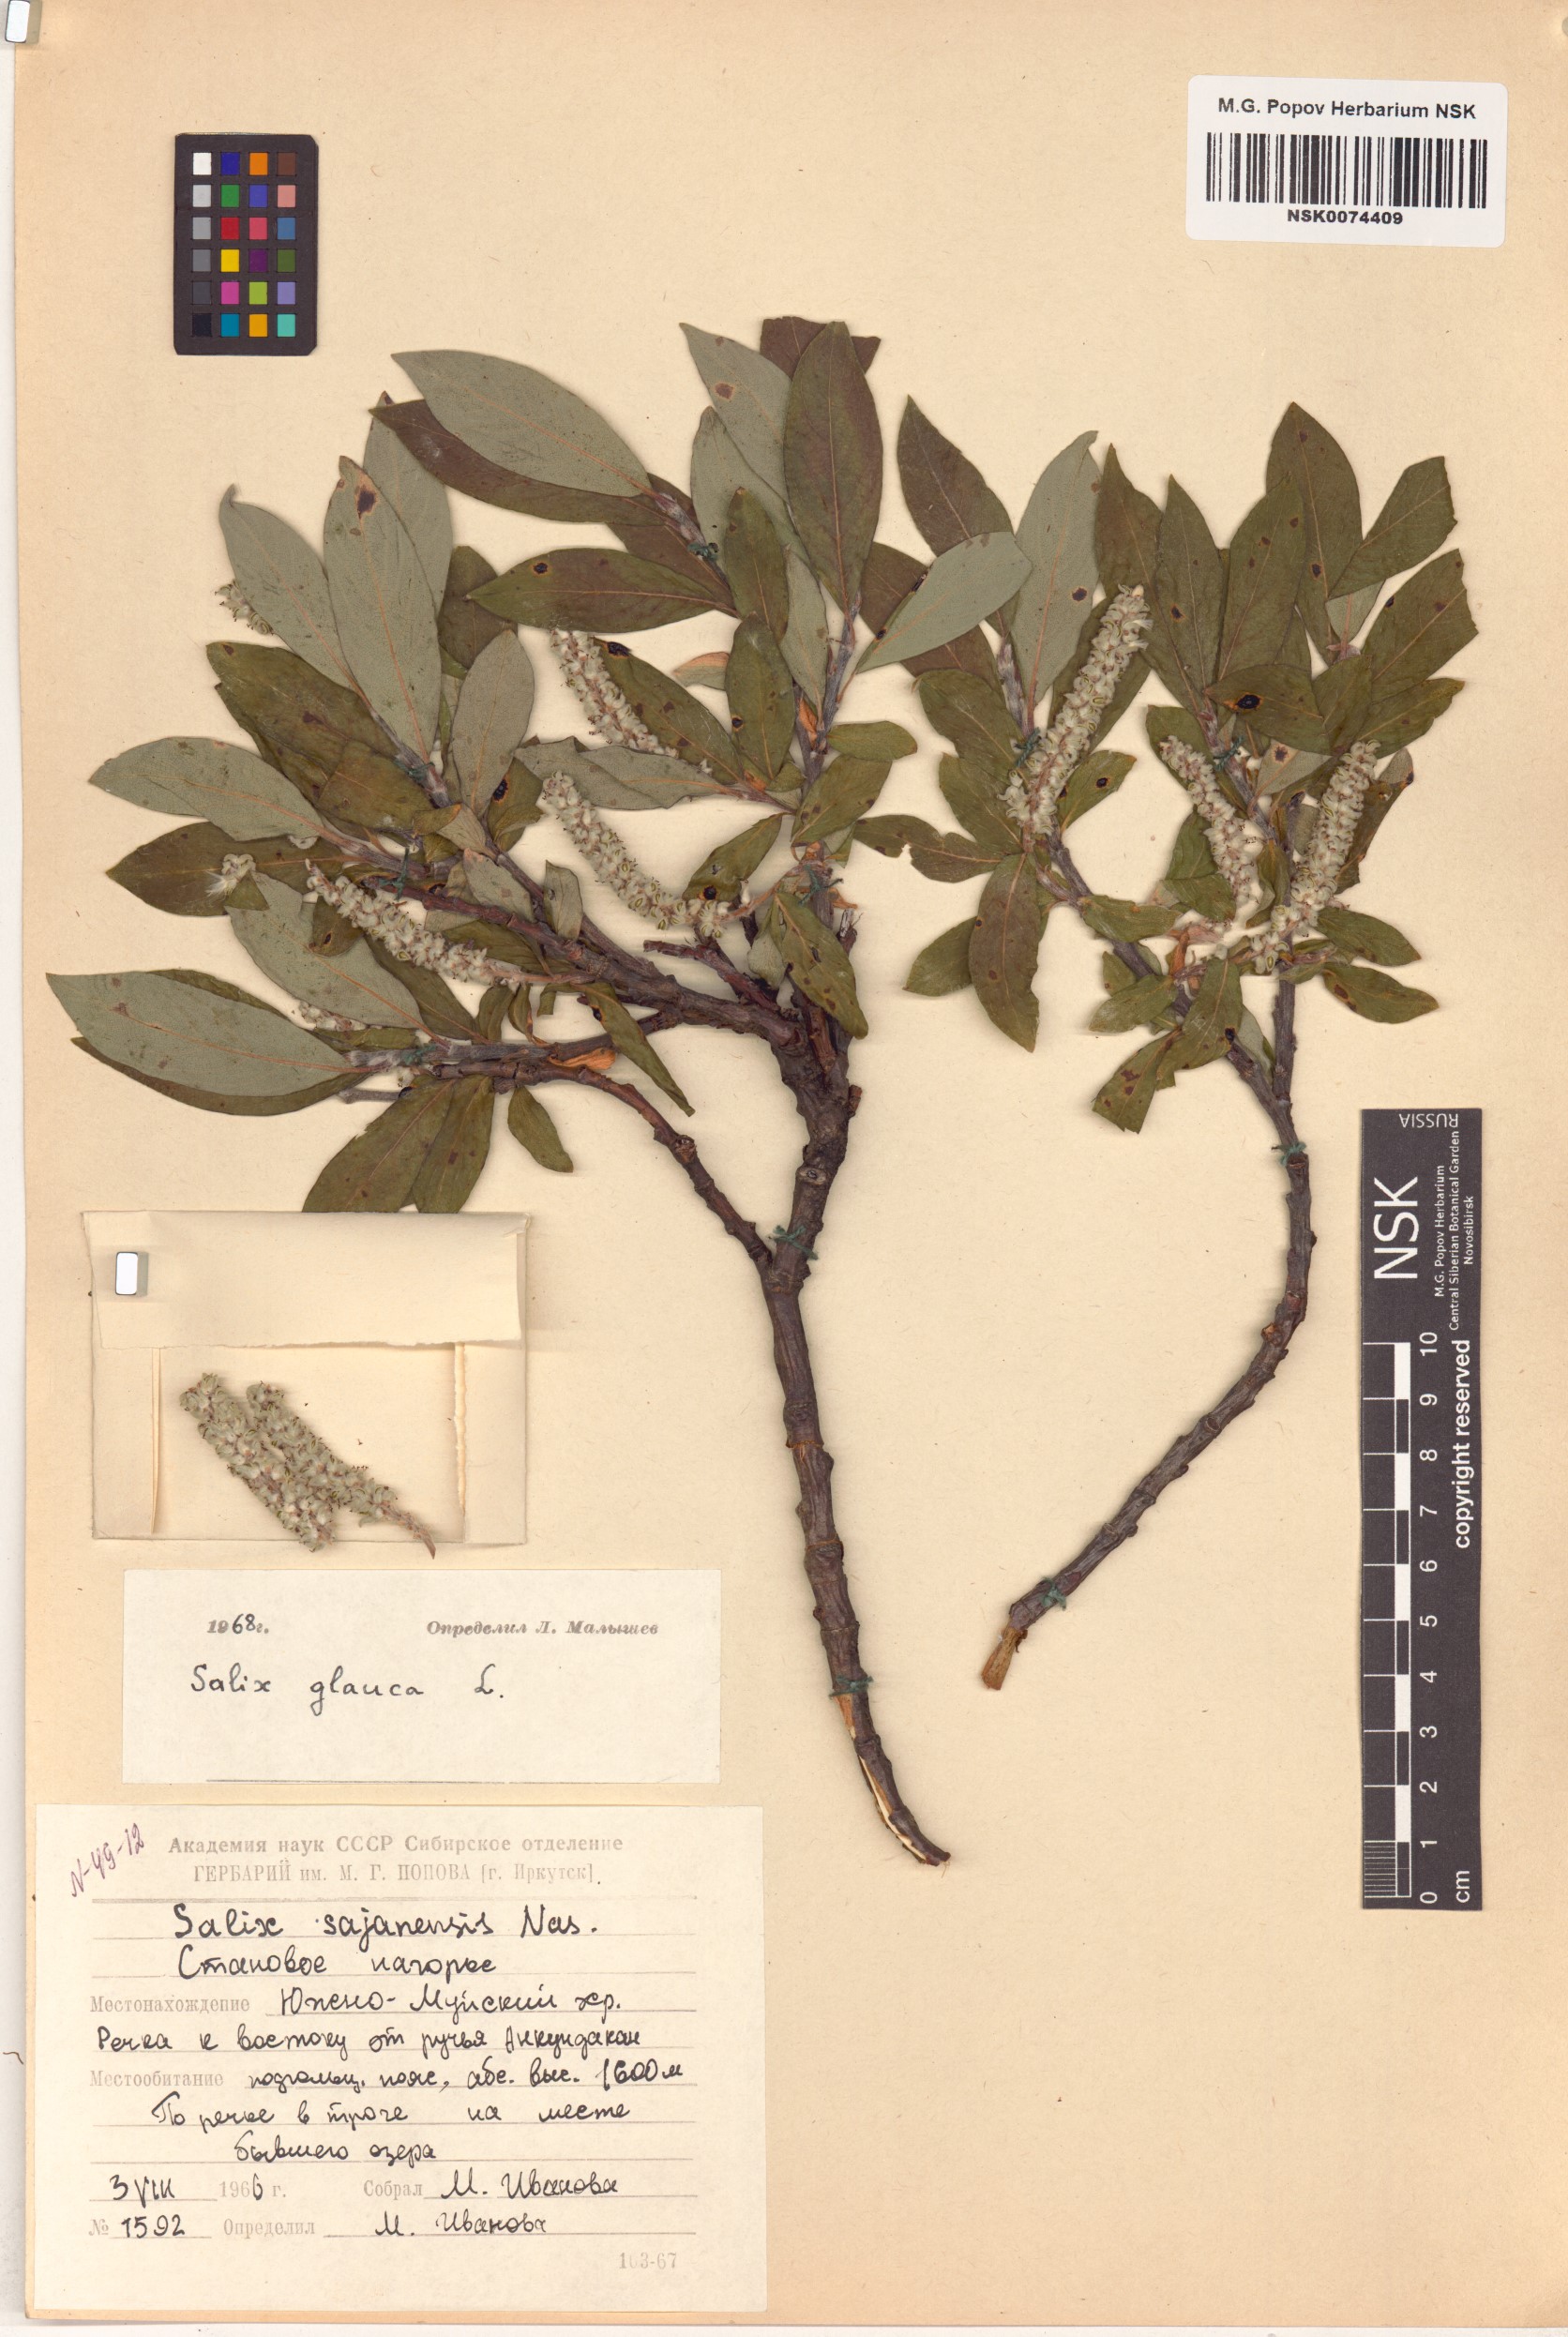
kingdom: Plantae
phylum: Tracheophyta
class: Magnoliopsida
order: Malpighiales
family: Salicaceae
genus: Salix
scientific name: Salix glauca
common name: Glaucous willow
